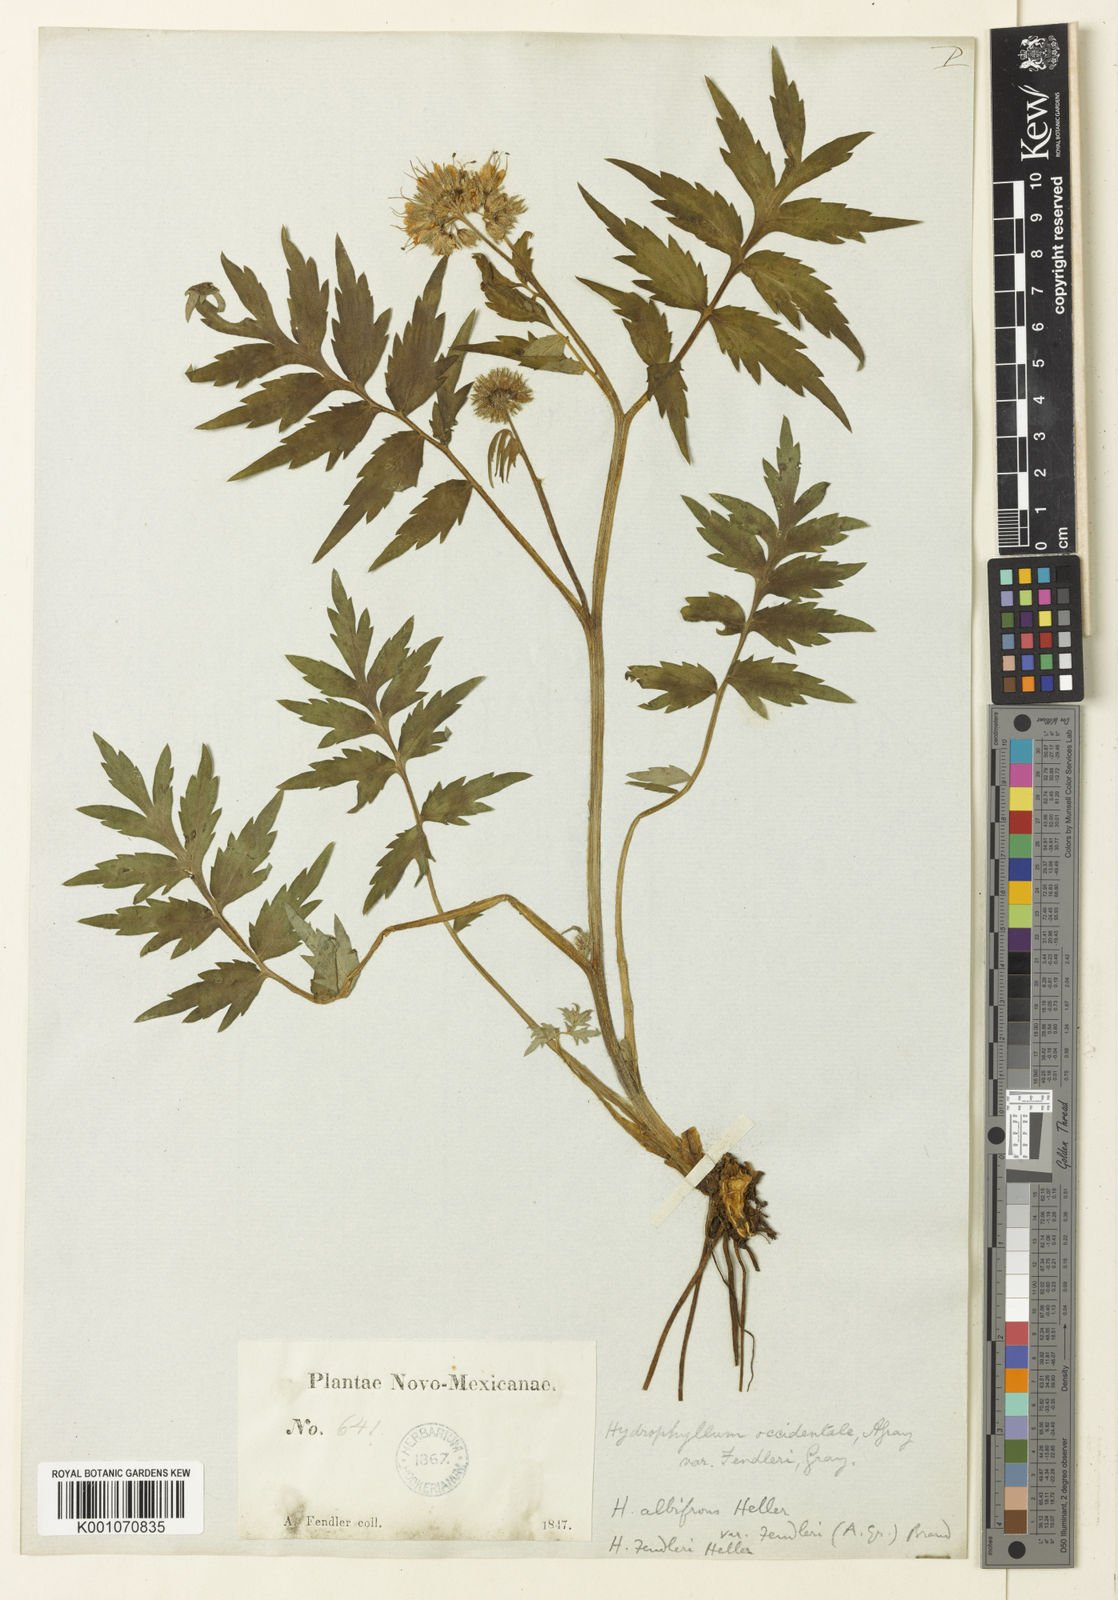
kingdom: Plantae
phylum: Tracheophyta
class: Magnoliopsida
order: Boraginales
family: Hydrophyllaceae
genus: Hydrophyllum
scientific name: Hydrophyllum fendleri
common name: Fendler's waterleaf
